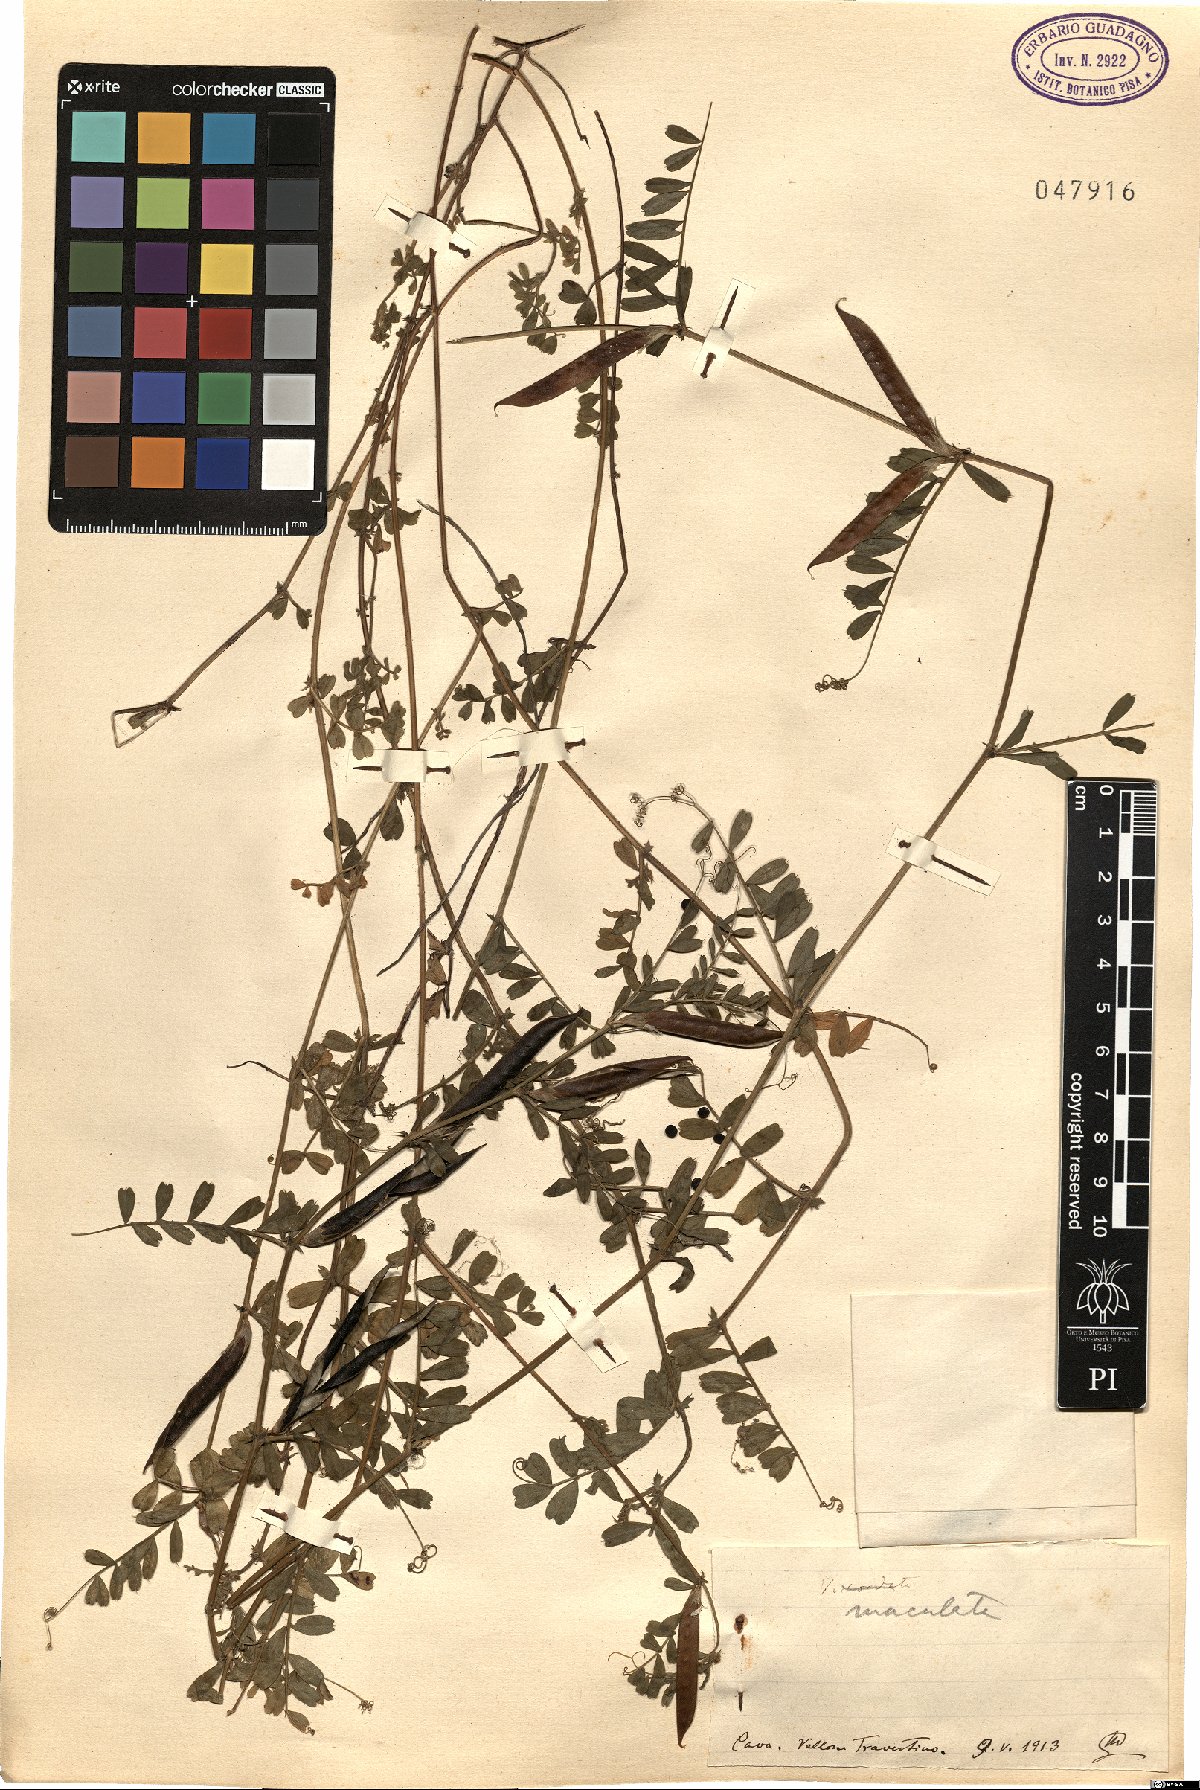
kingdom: Plantae
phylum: Tracheophyta
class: Magnoliopsida
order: Fabales
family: Fabaceae
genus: Vicia
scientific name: Vicia sativa
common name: Garden vetch
